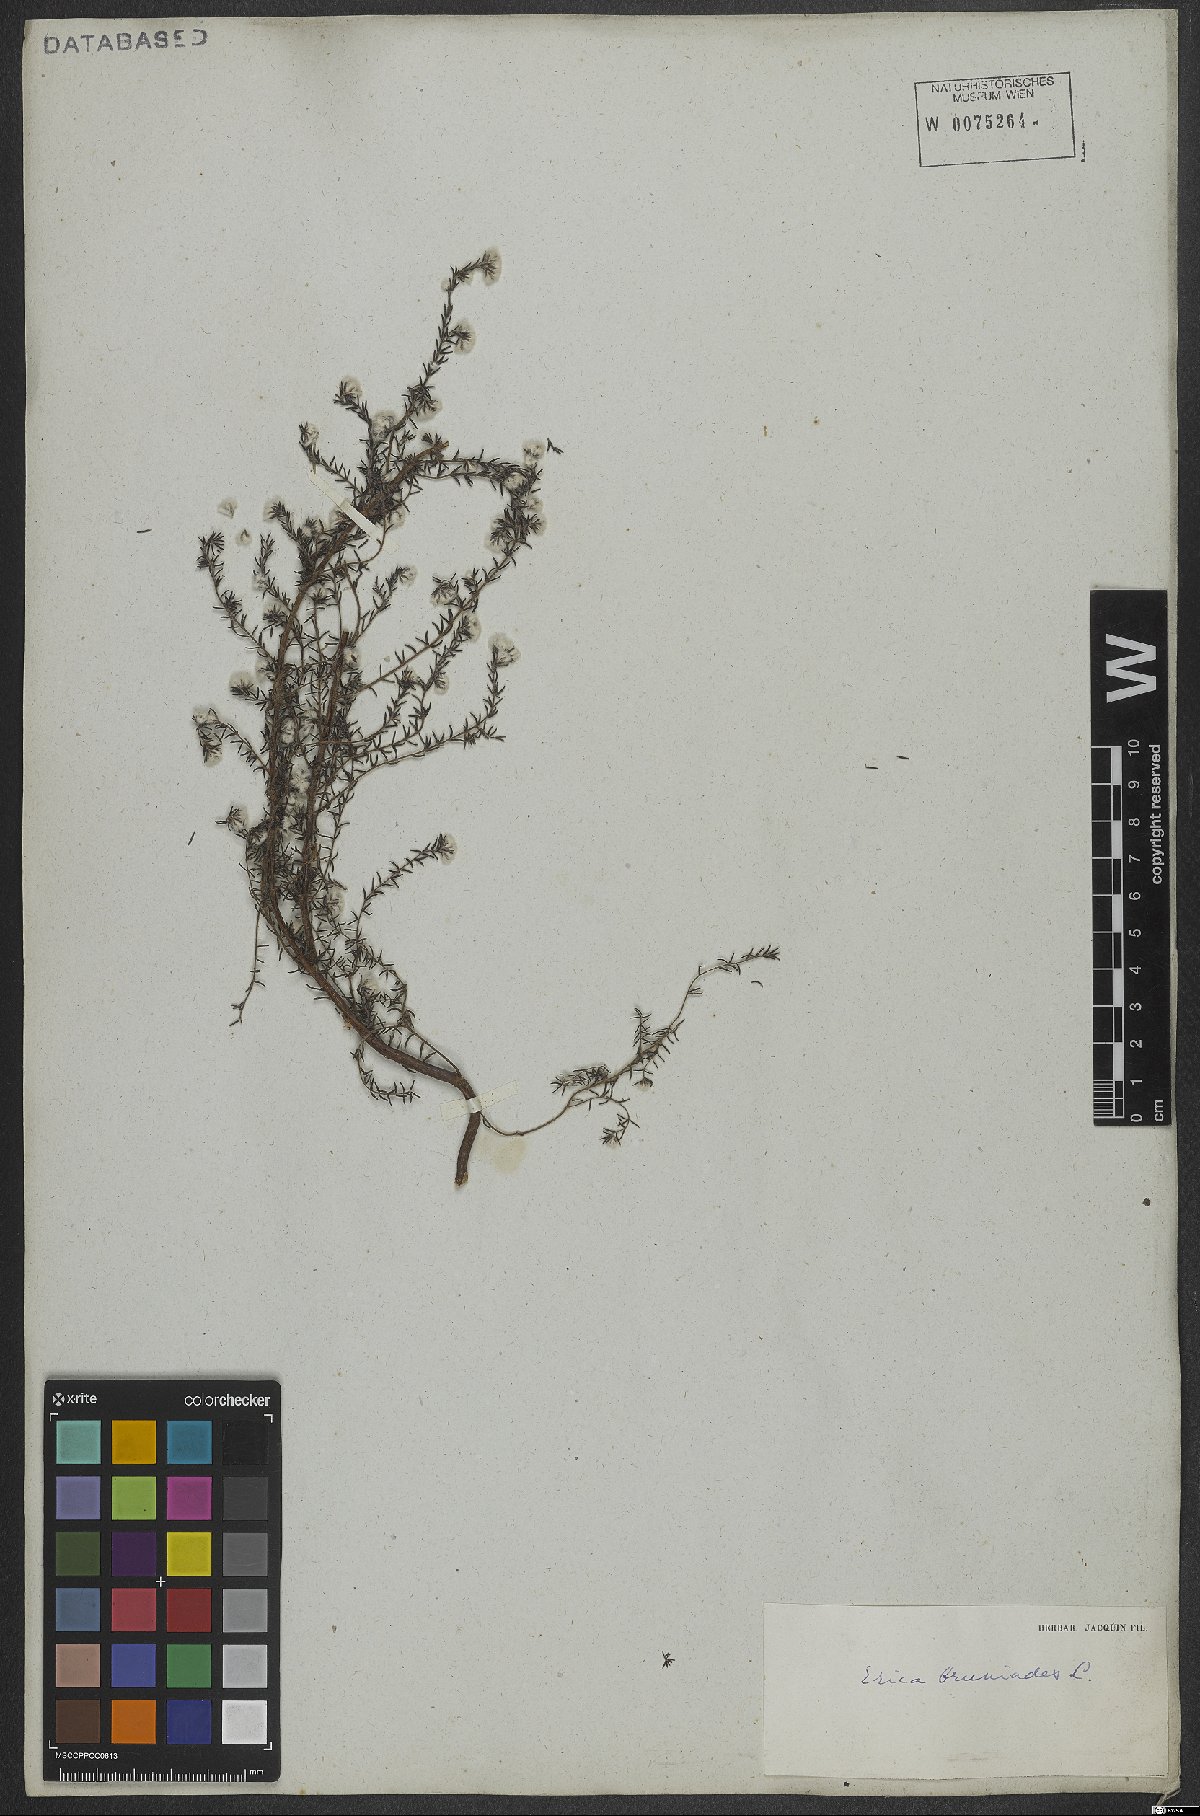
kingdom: Plantae
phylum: Tracheophyta
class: Magnoliopsida
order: Ericales
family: Ericaceae
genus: Erica
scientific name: Erica bruniades
